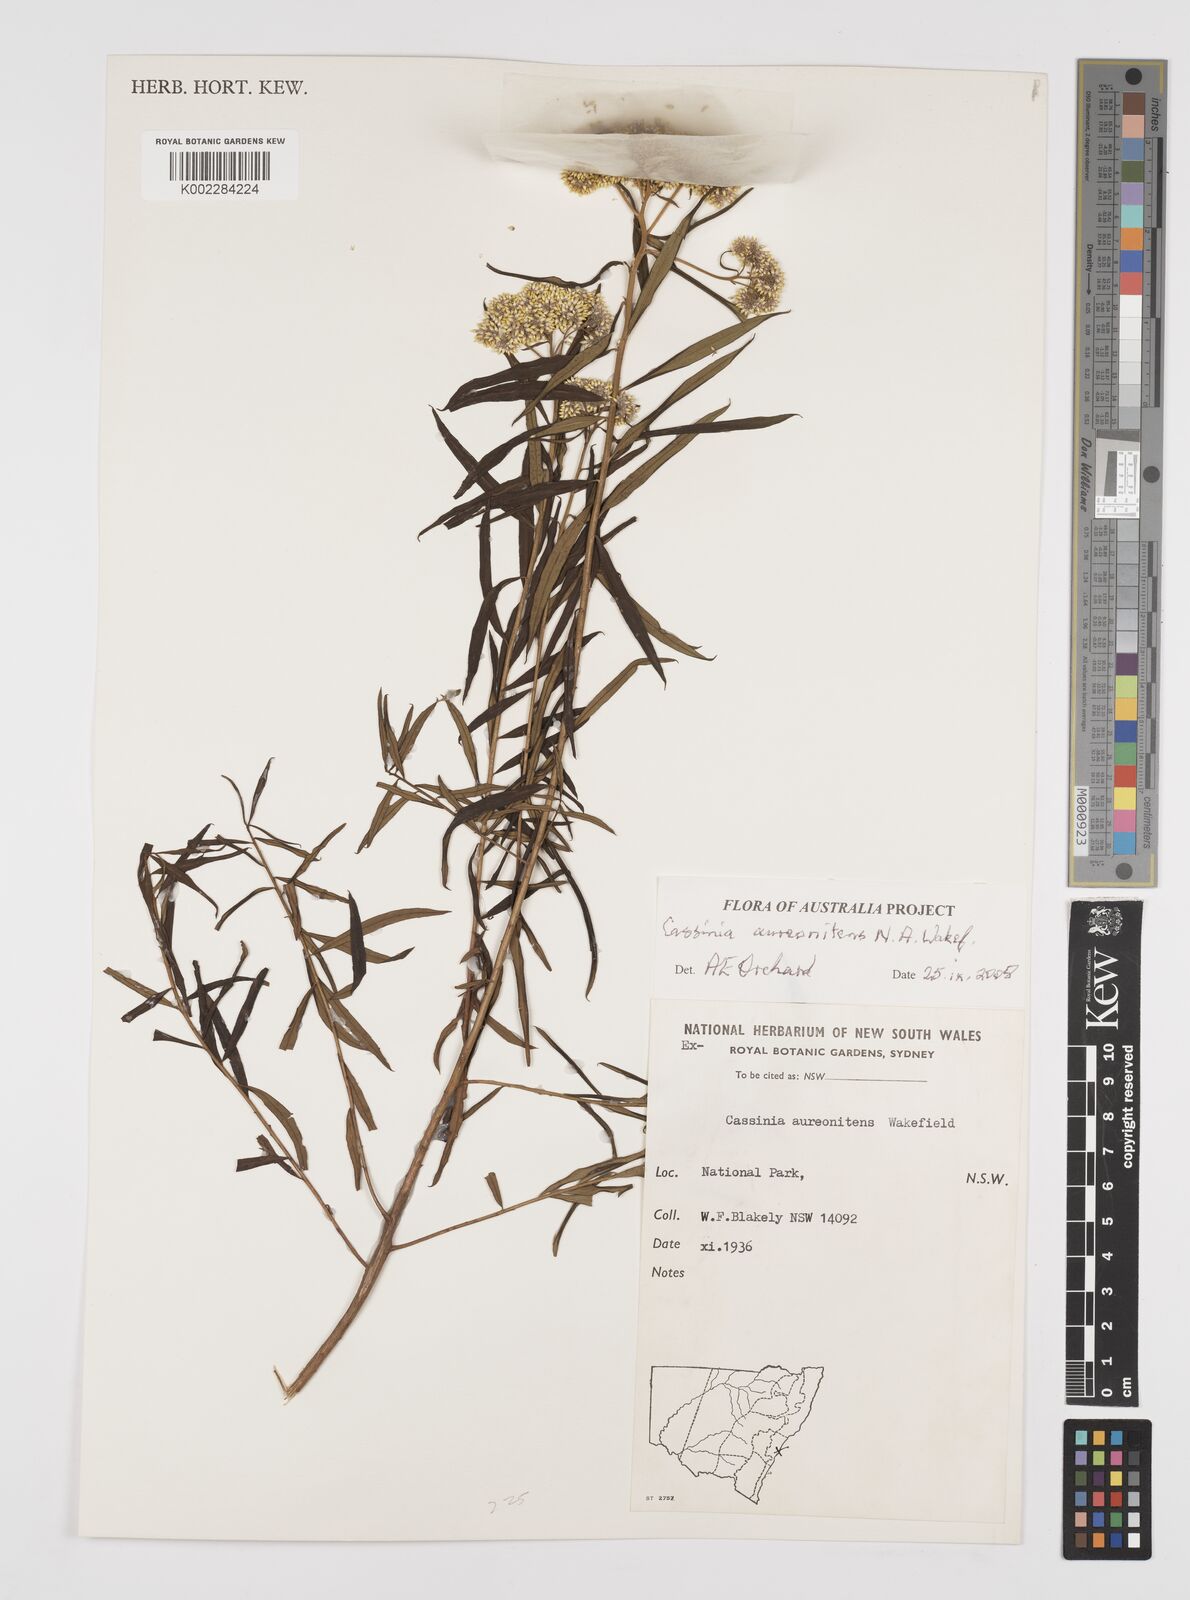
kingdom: Plantae
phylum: Tracheophyta
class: Magnoliopsida
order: Asterales
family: Asteraceae
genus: Cassinia
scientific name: Cassinia aureonitens
